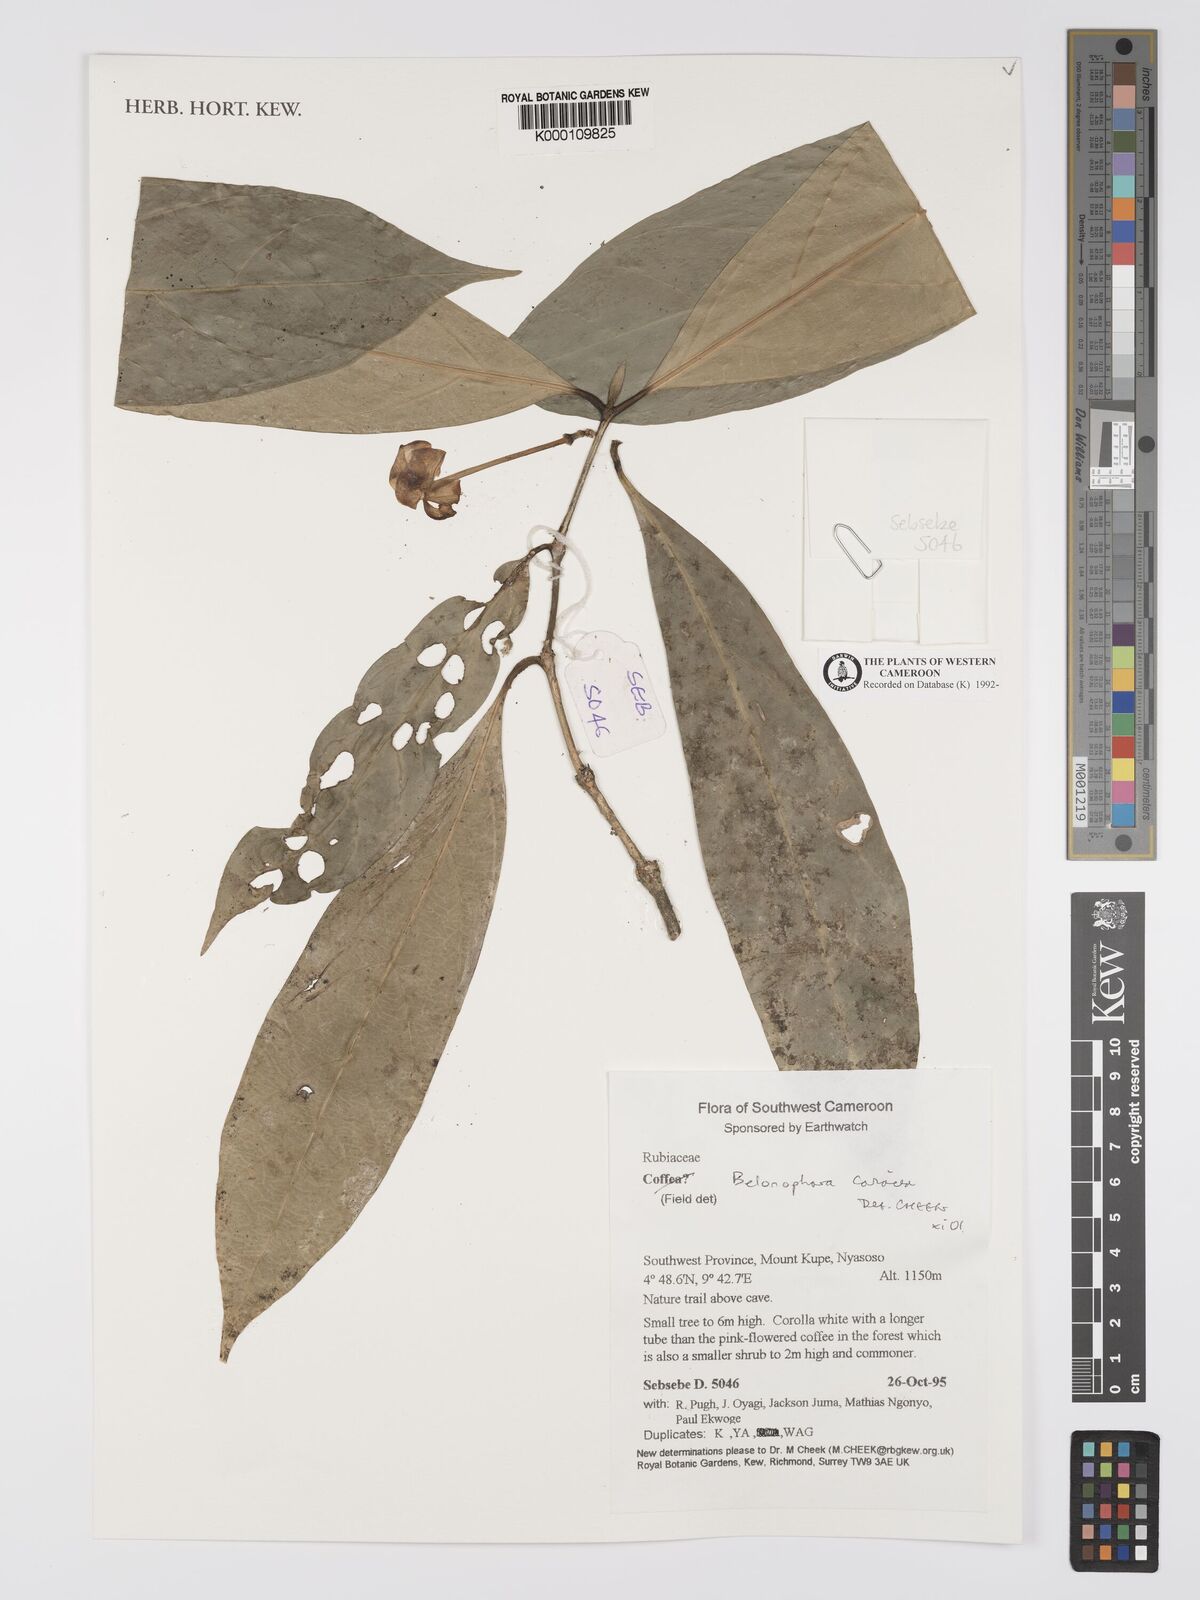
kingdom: Plantae
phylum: Tracheophyta
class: Magnoliopsida
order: Gentianales
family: Rubiaceae
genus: Belonophora
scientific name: Belonophora coriacea
